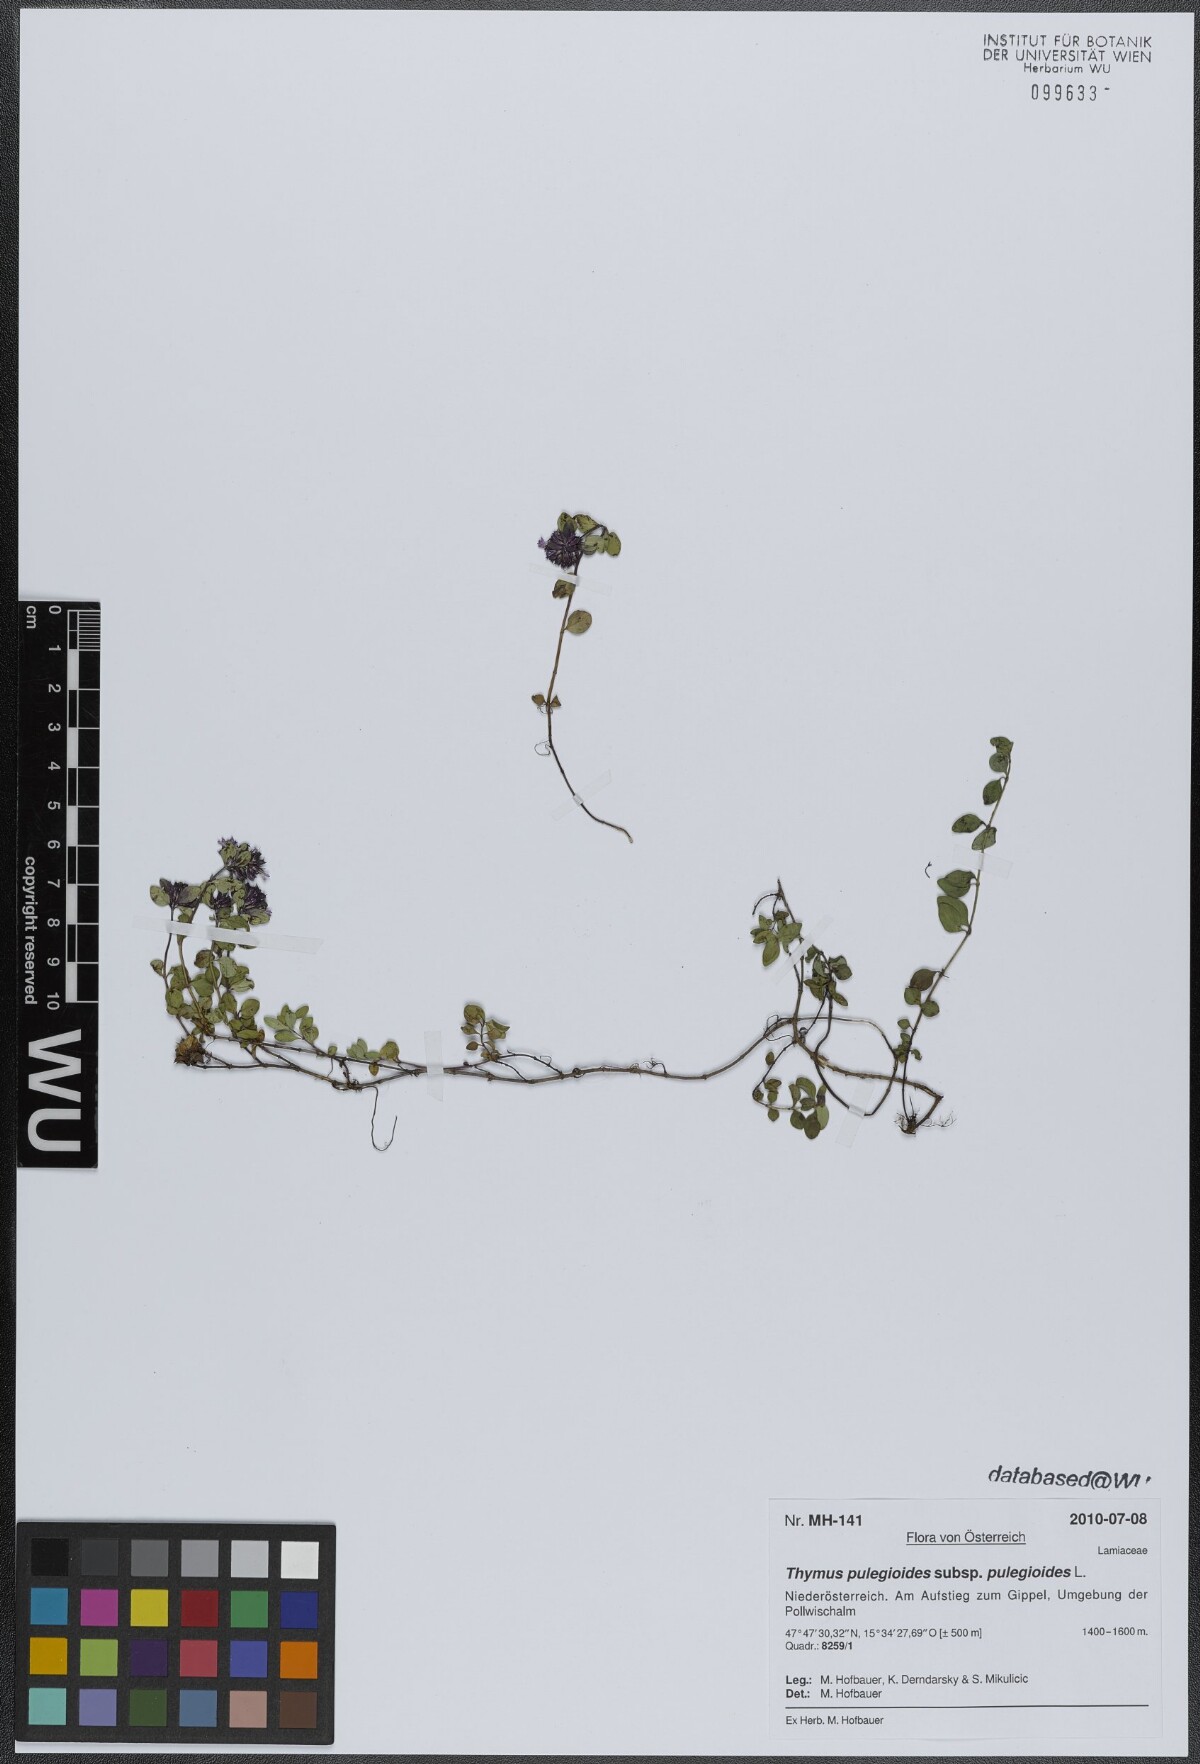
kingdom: Plantae
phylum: Tracheophyta
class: Magnoliopsida
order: Lamiales
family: Lamiaceae
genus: Thymus
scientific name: Thymus pulegioides
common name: Large thyme
